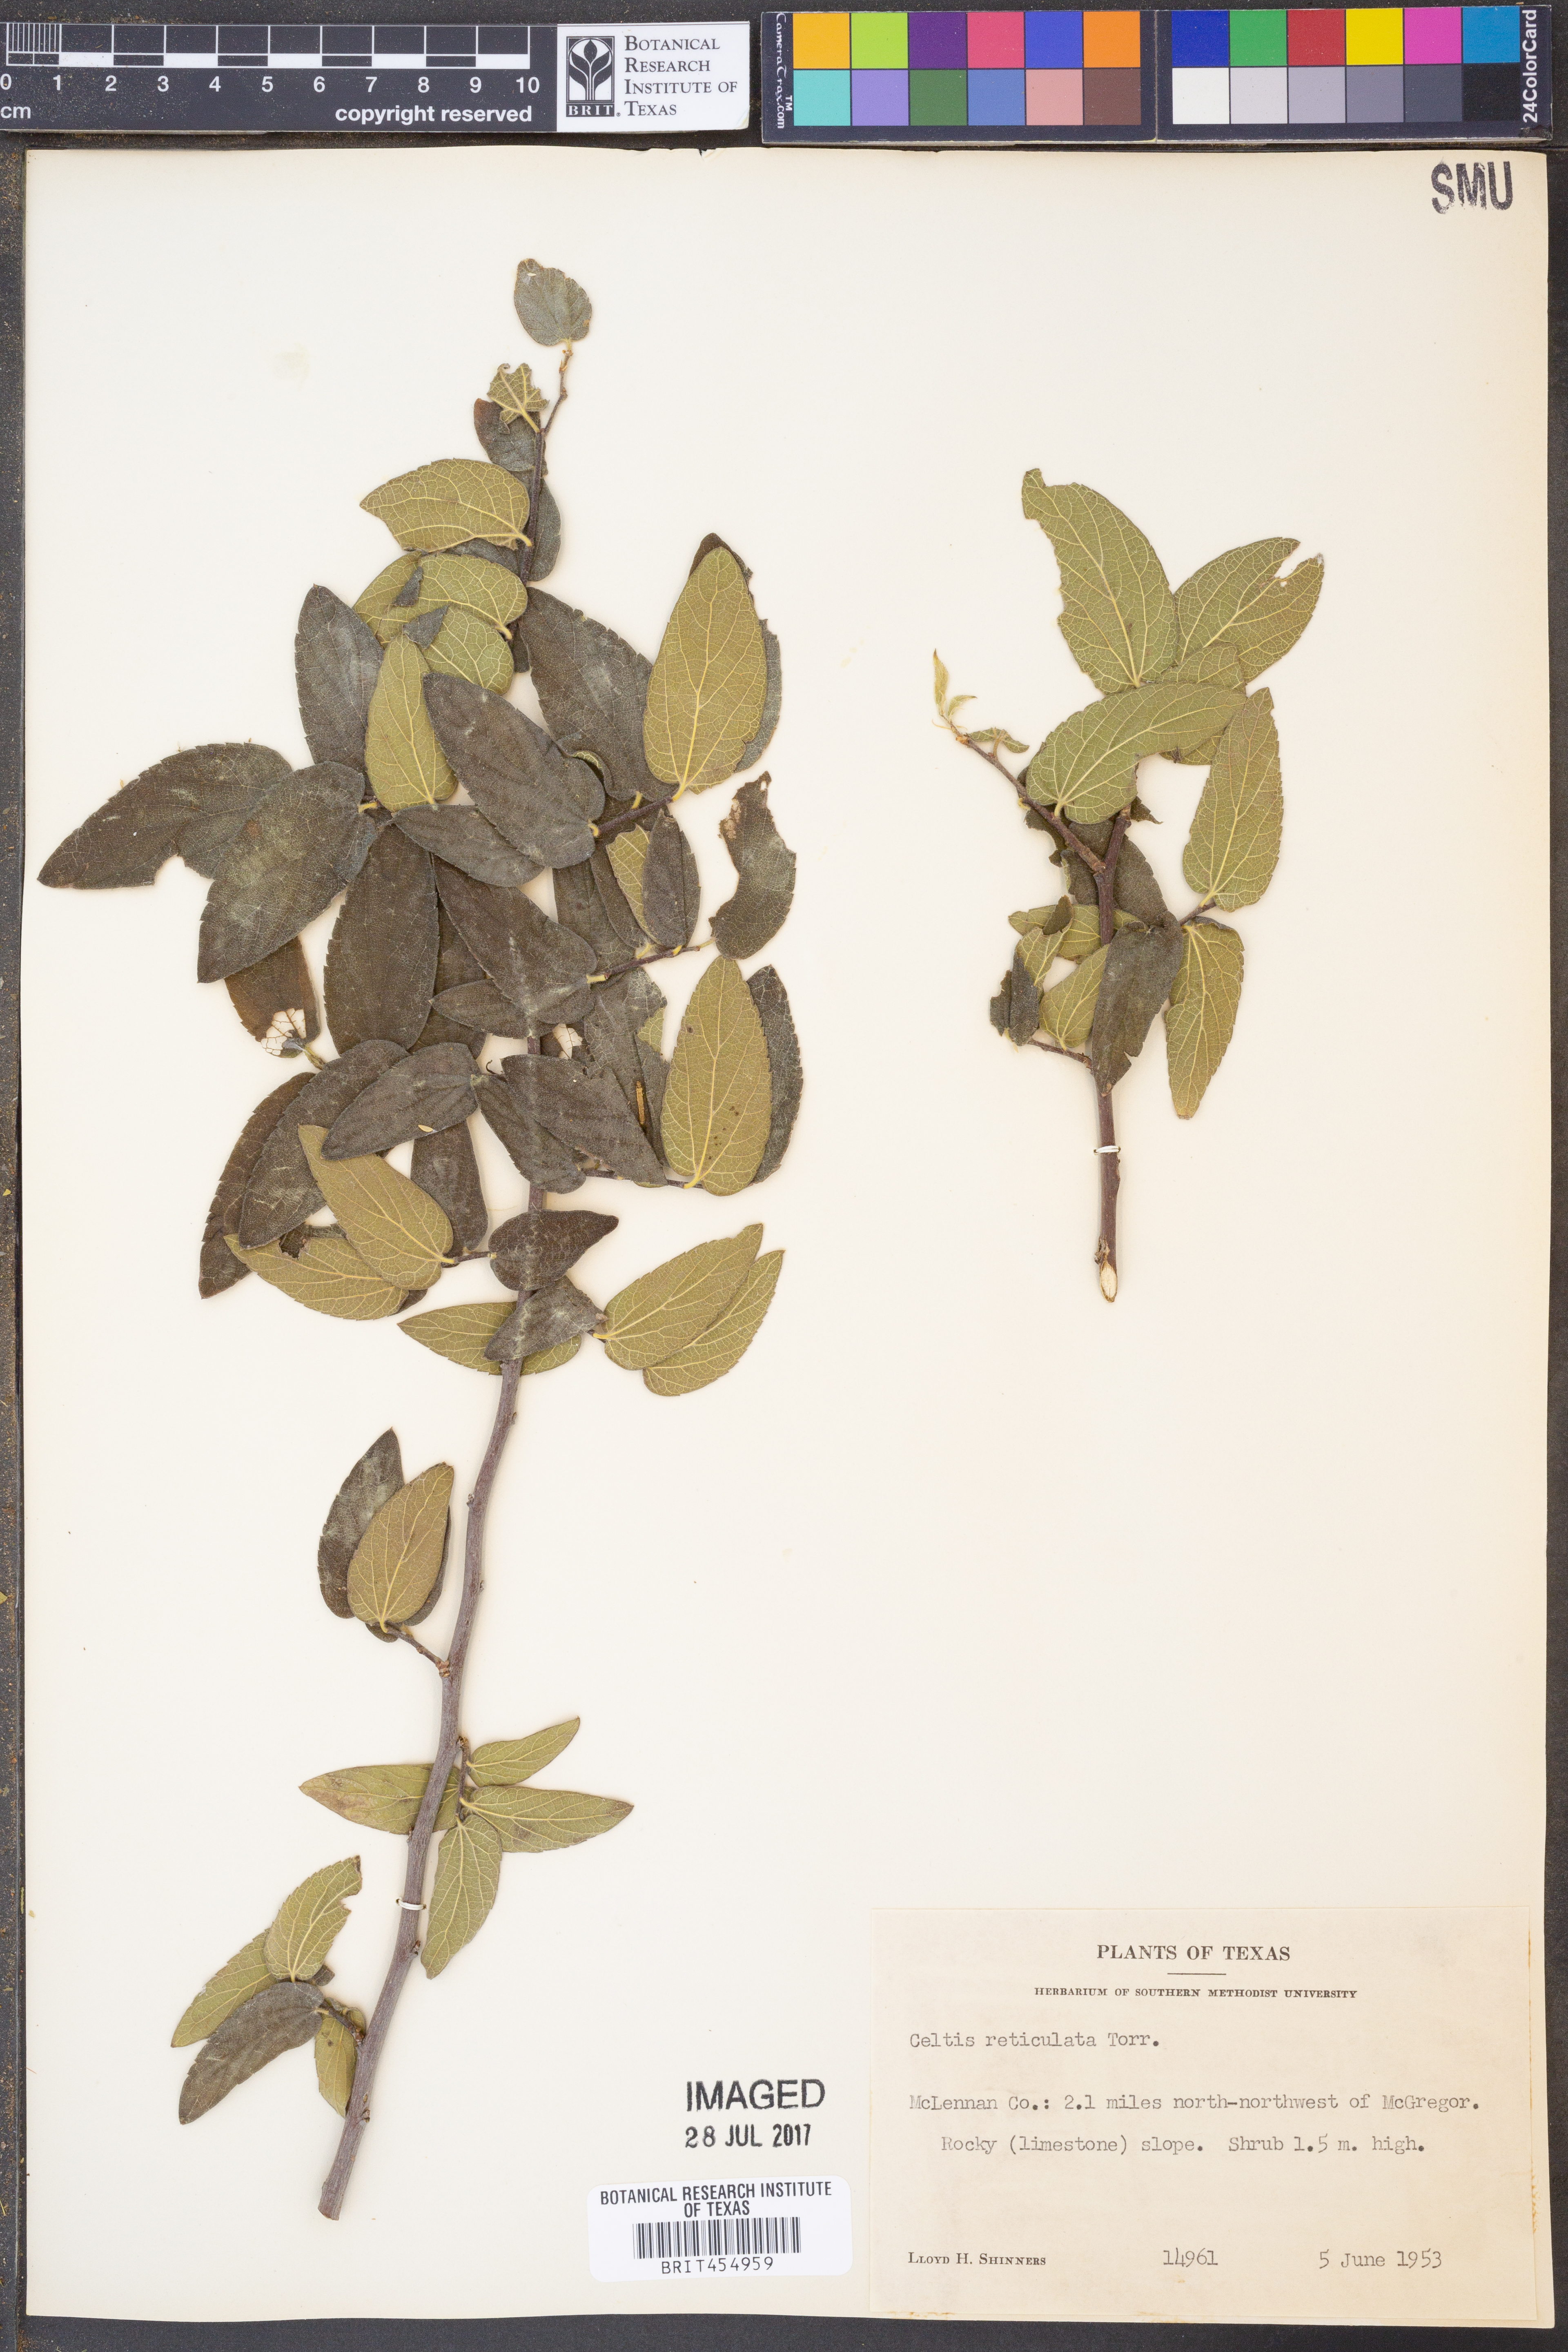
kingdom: Plantae
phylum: Tracheophyta
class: Magnoliopsida
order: Rosales
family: Cannabaceae
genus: Celtis
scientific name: Celtis reticulata
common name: Netleaf hackberry
